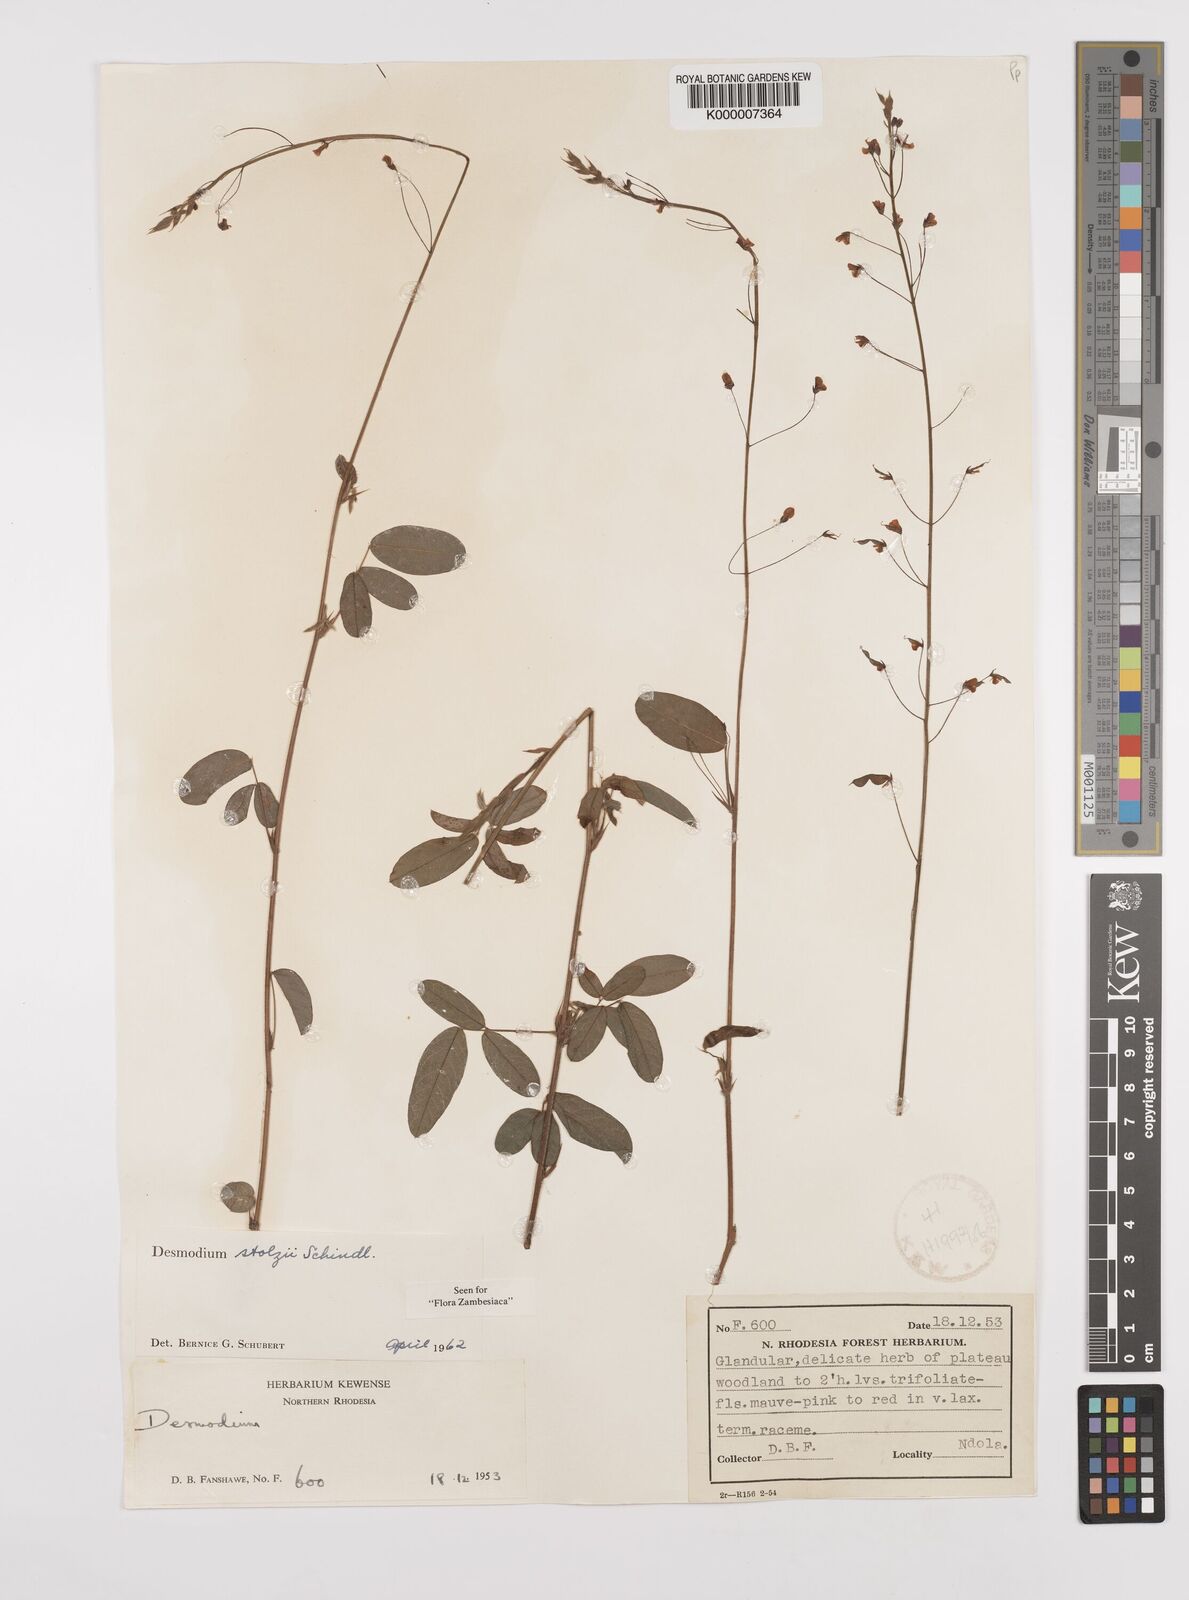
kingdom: Plantae
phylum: Tracheophyta
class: Magnoliopsida
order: Fabales
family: Fabaceae
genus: Grona
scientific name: Grona stolzii
